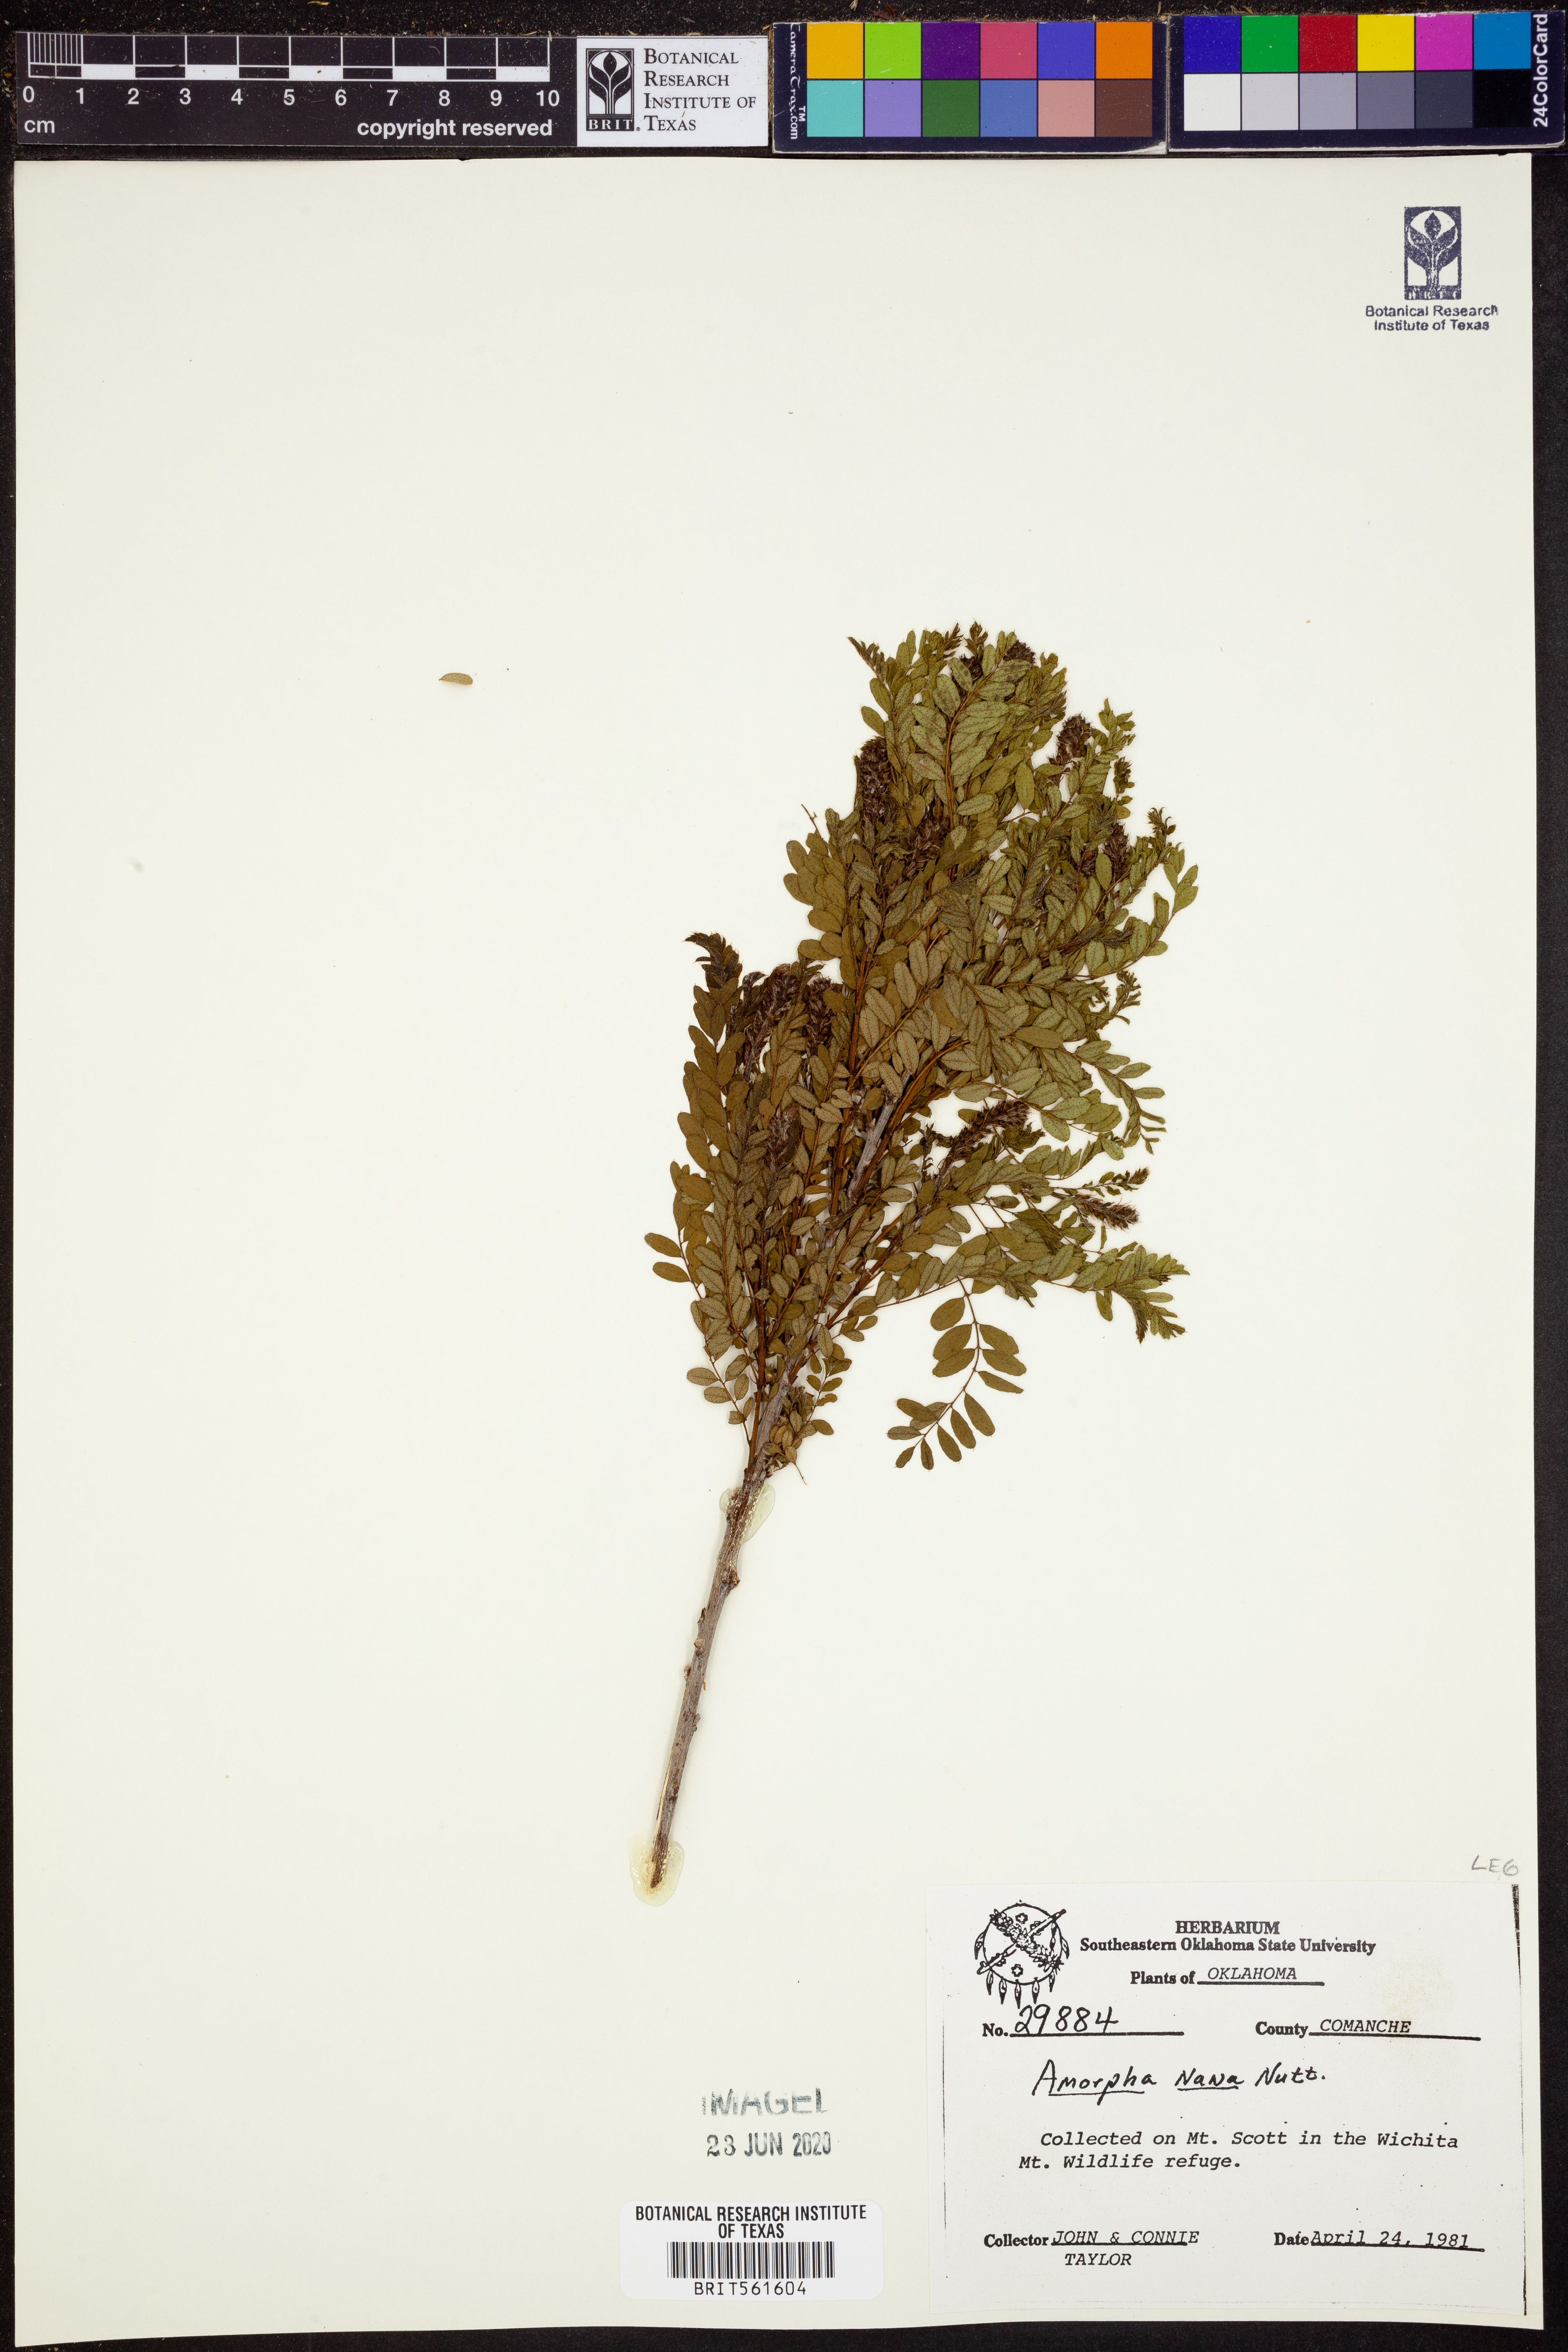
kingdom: Plantae
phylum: Tracheophyta
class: Magnoliopsida
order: Fabales
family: Fabaceae
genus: Amorpha
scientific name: Amorpha nana
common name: Fragrant false indigo
